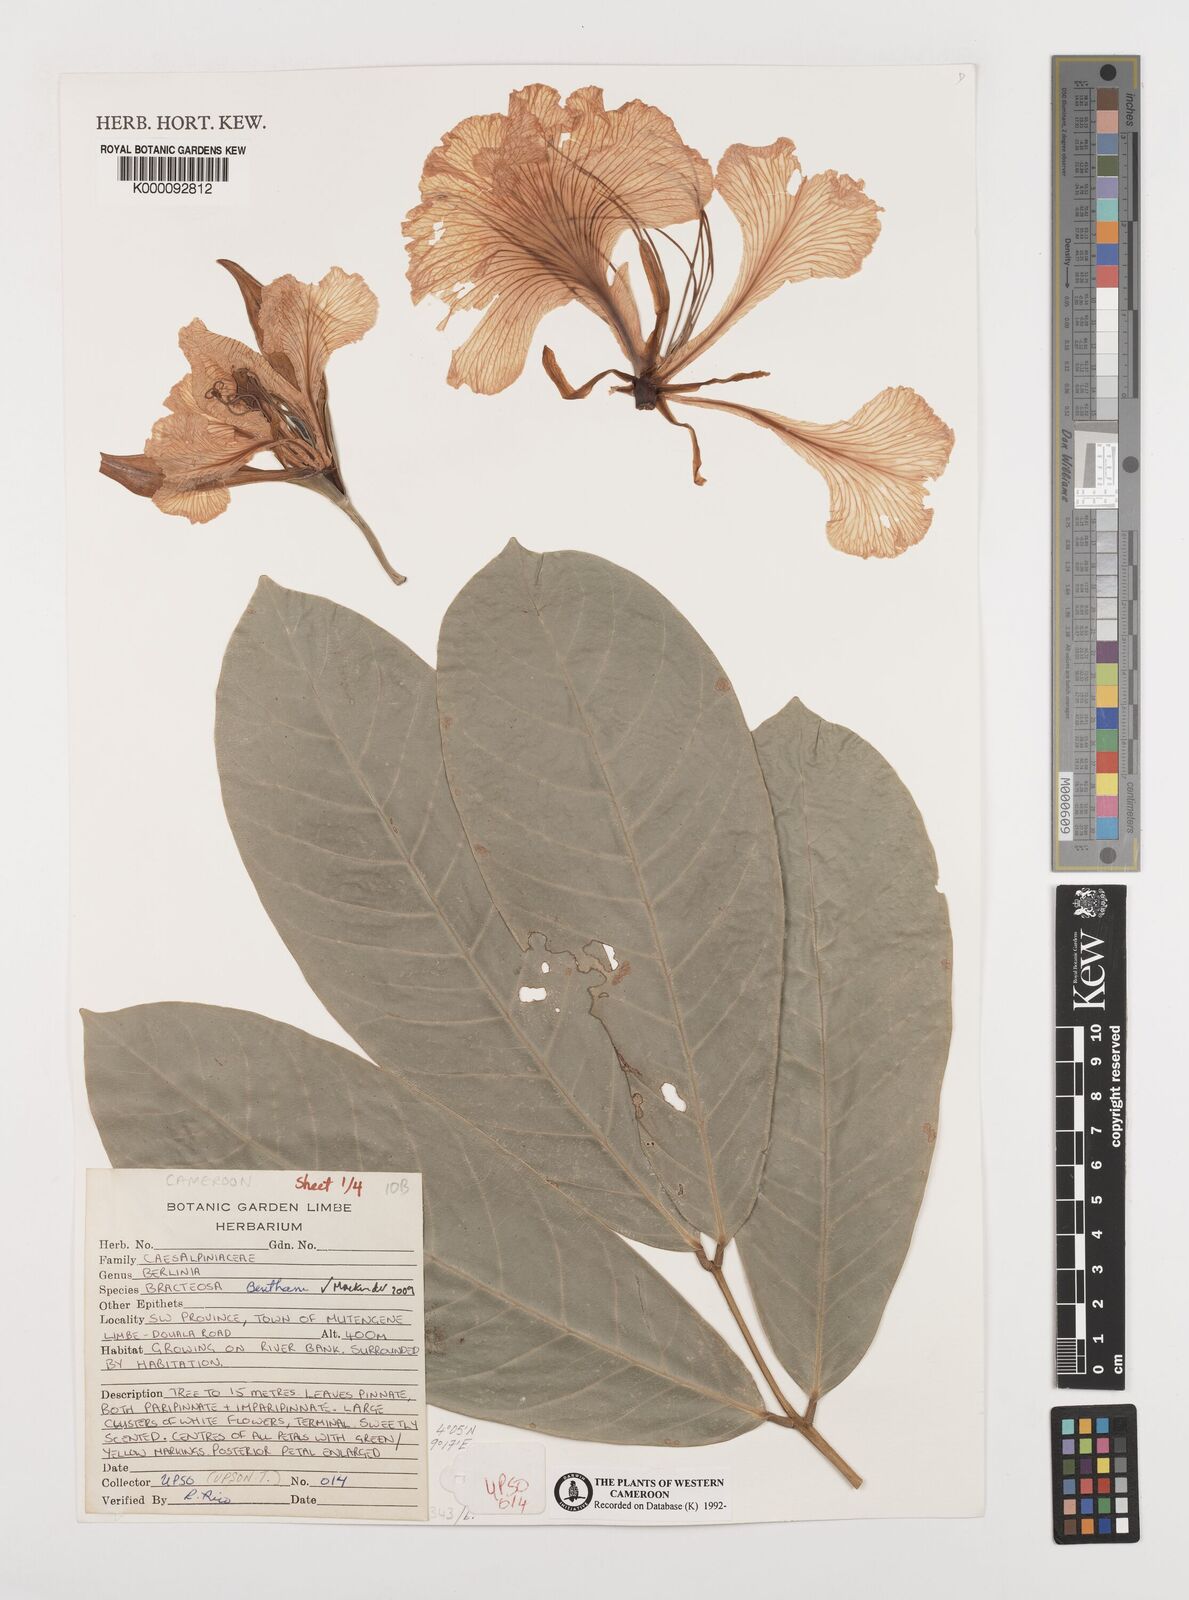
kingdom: Plantae
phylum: Tracheophyta
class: Magnoliopsida
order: Fabales
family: Fabaceae
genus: Berlinia
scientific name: Berlinia bracteosa
